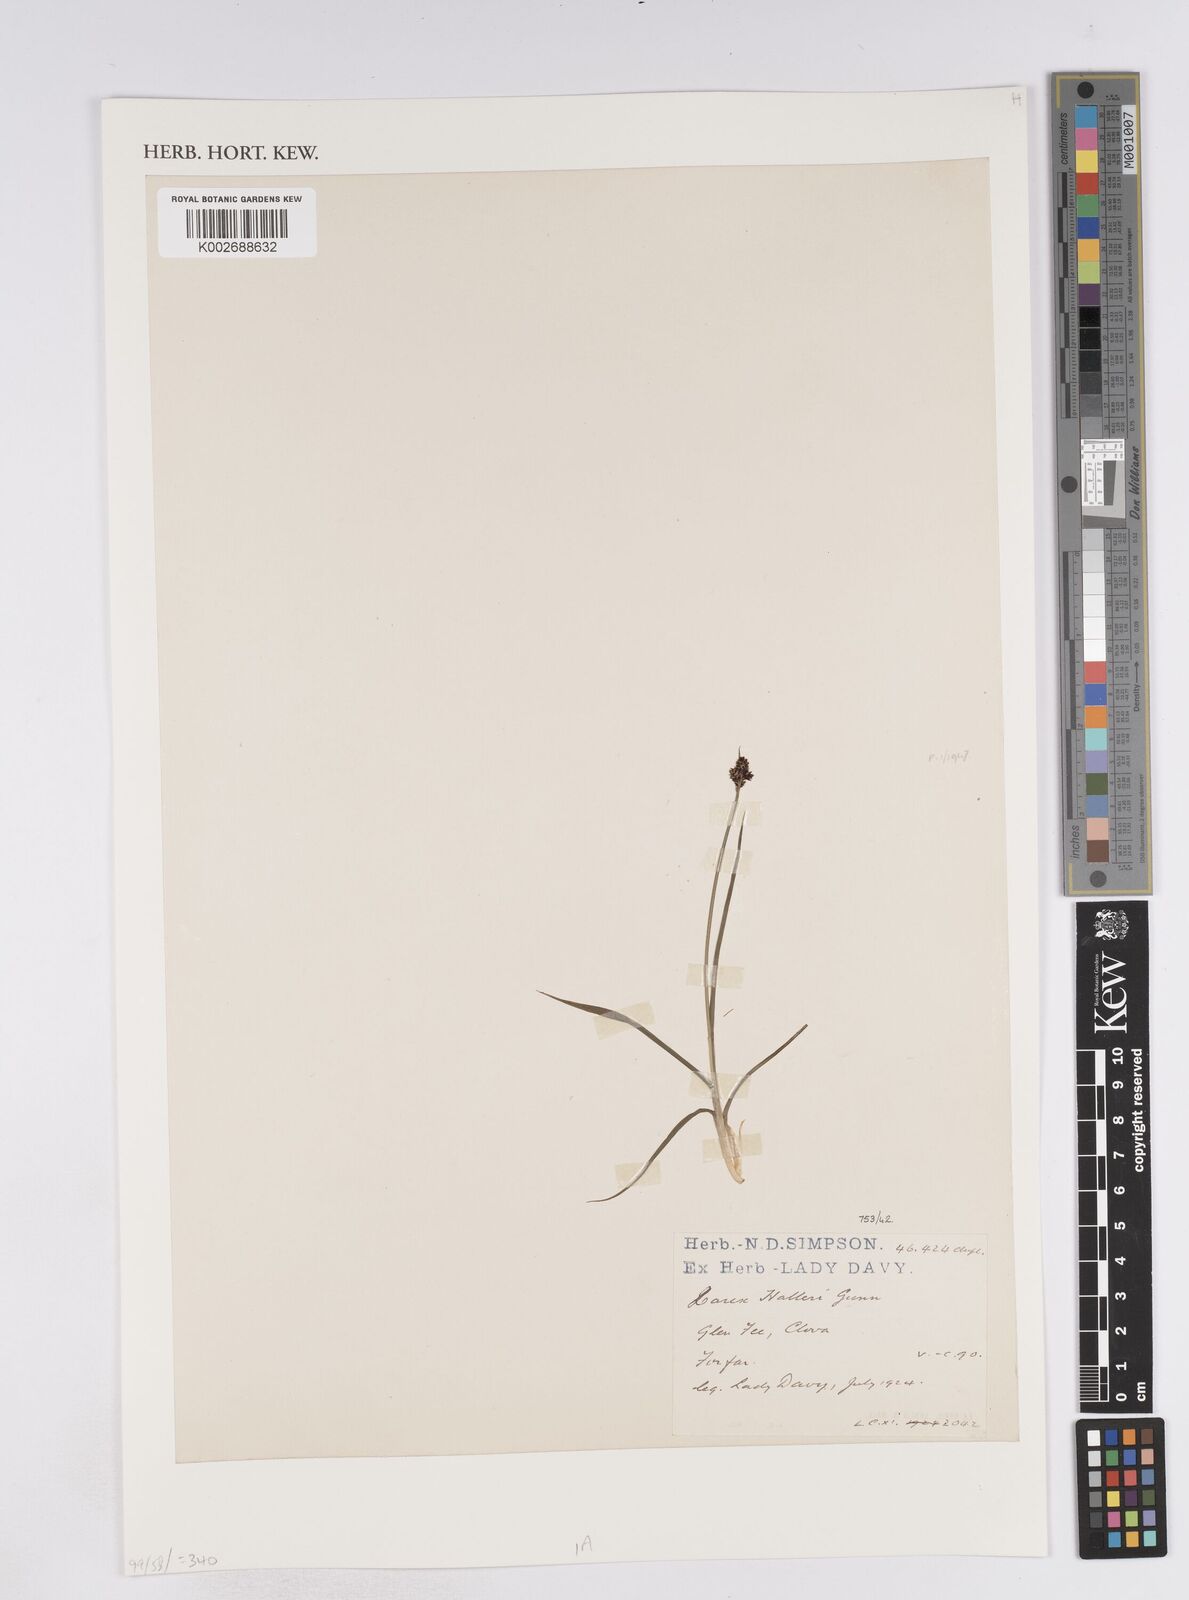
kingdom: Plantae
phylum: Tracheophyta
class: Liliopsida
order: Poales
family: Cyperaceae
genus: Carex
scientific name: Carex norvegica
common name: Close-headed alpine-sedge
